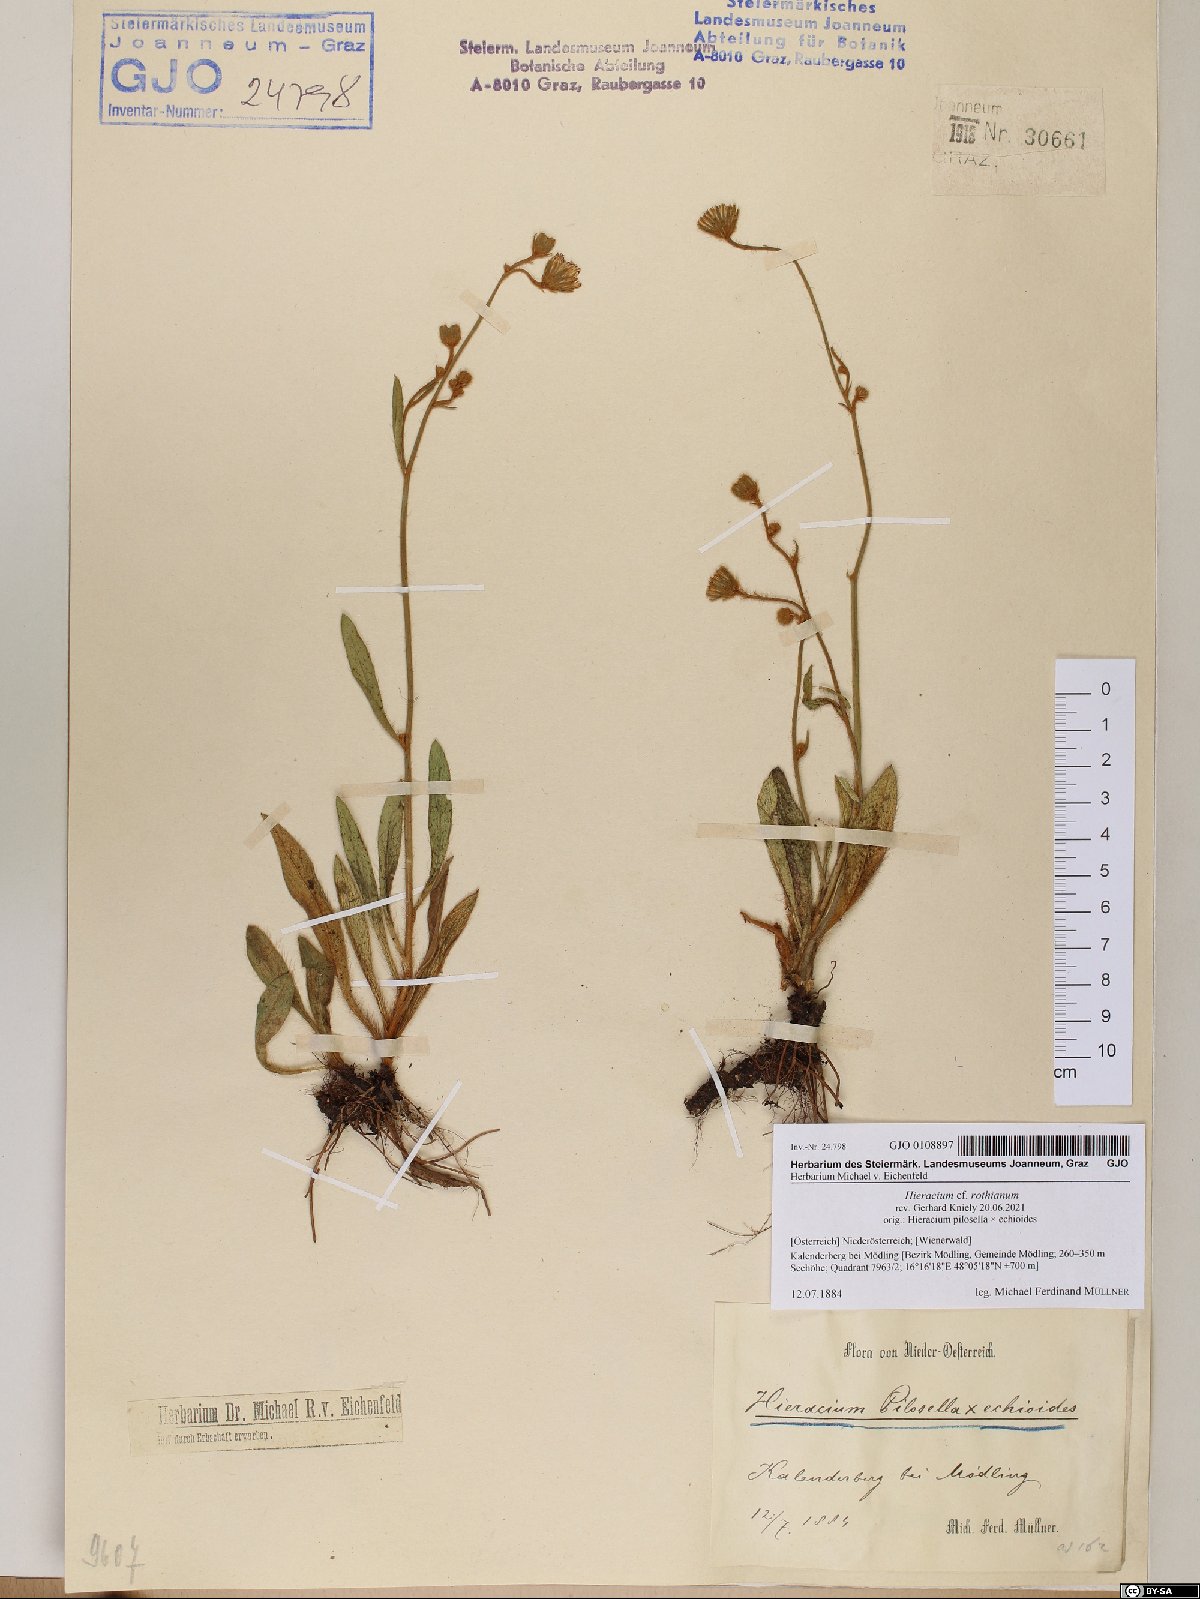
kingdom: Plantae
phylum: Tracheophyta
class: Magnoliopsida
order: Asterales
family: Asteraceae
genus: Pilosella
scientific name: Pilosella rothiana
